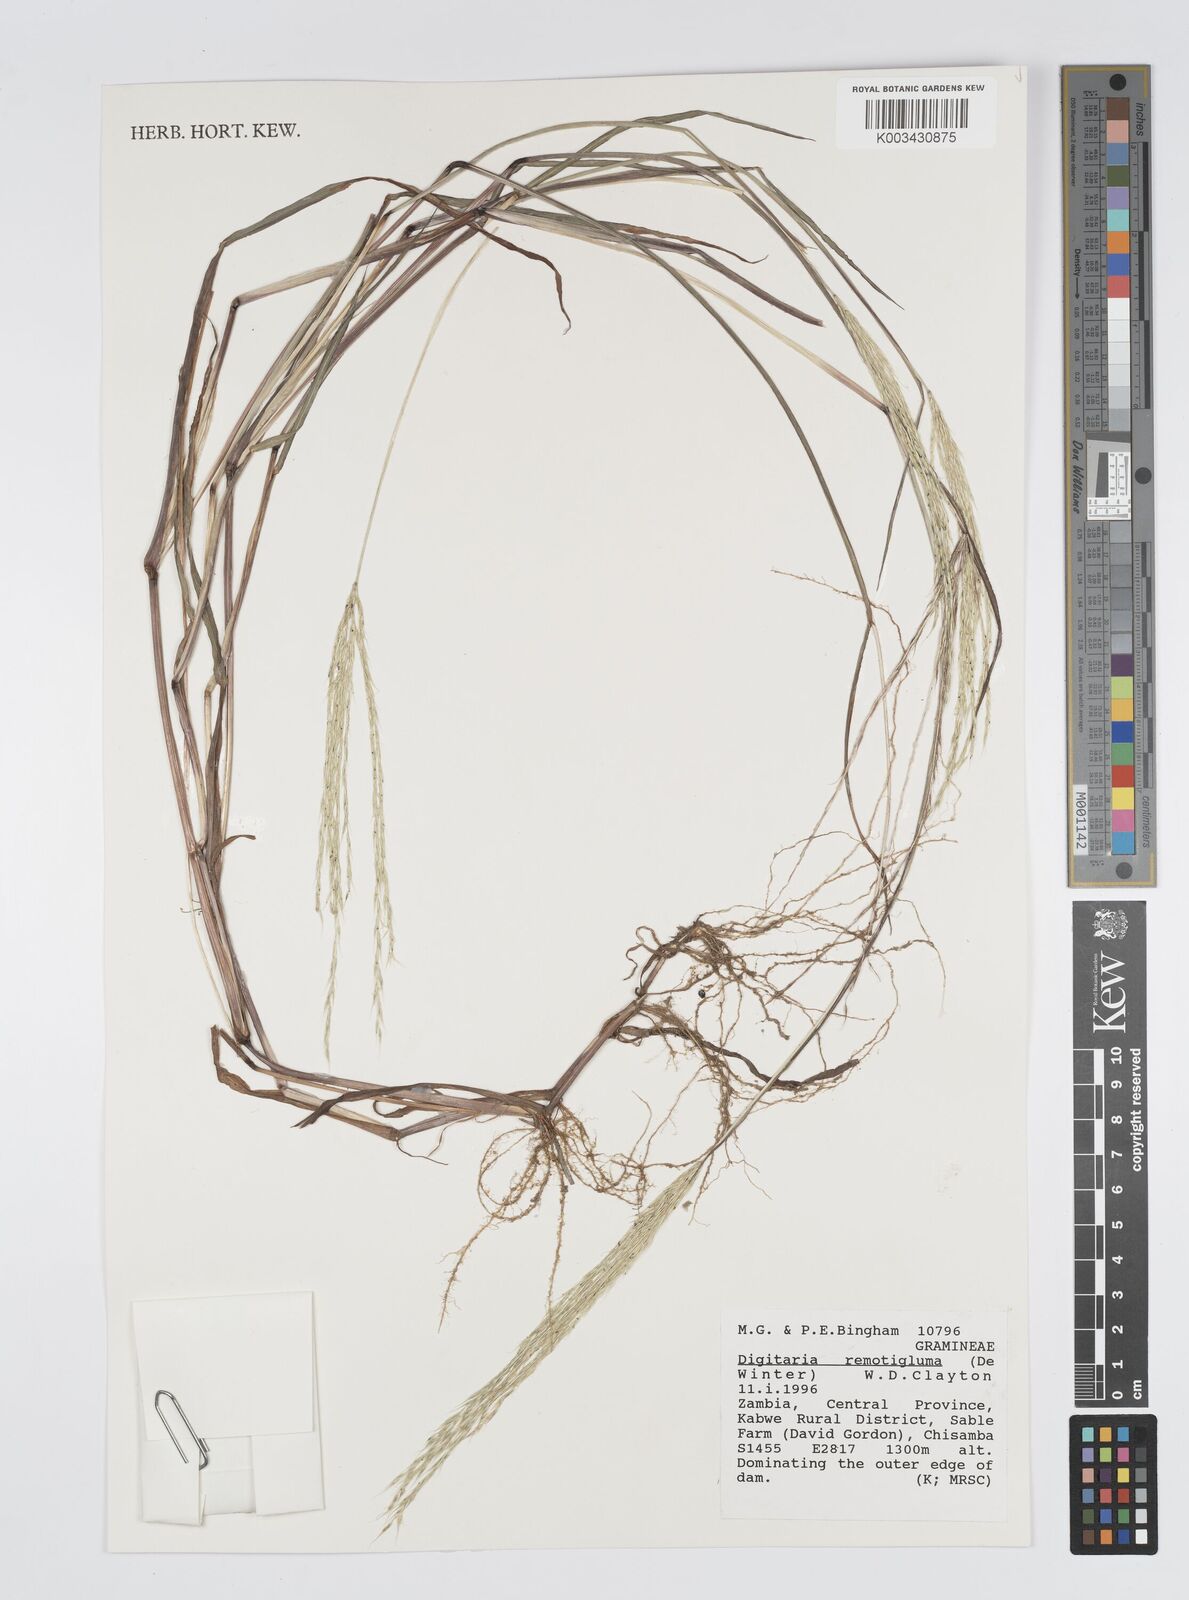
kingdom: Plantae
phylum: Tracheophyta
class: Liliopsida
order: Poales
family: Poaceae
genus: Digitaria
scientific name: Digitaria remotigluma
